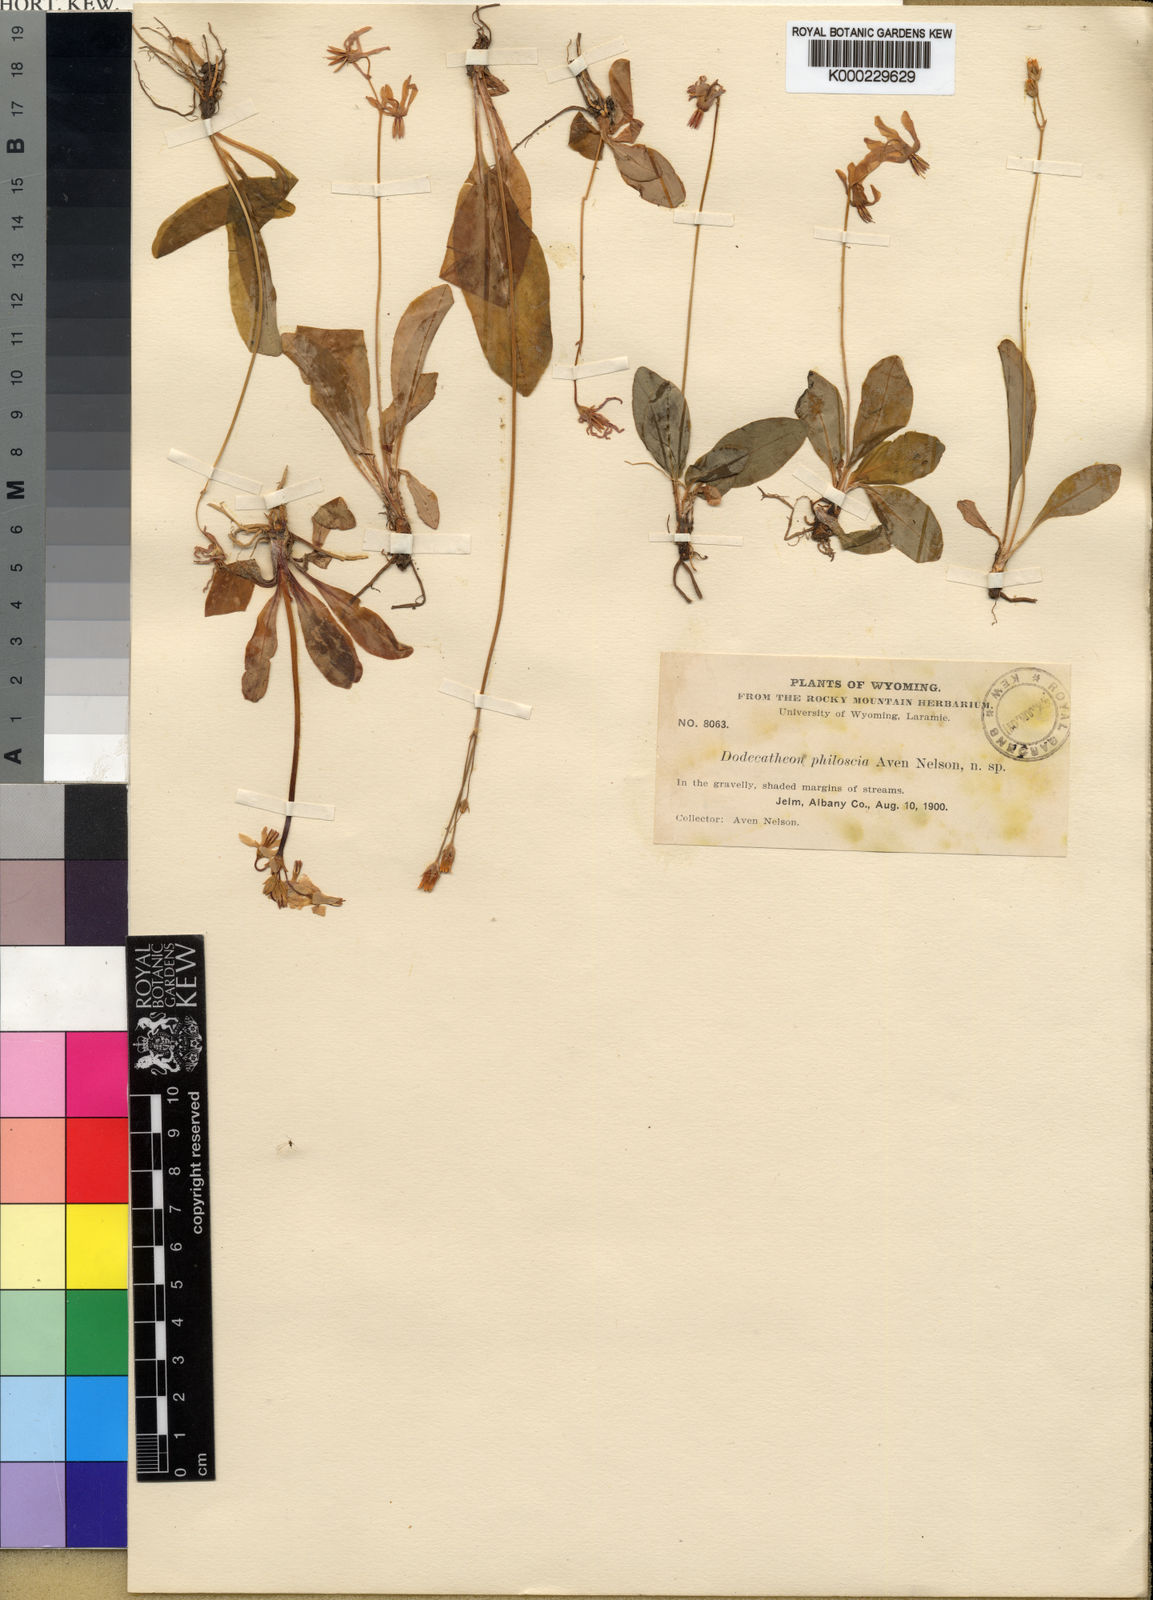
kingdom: Plantae
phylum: Tracheophyta
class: Magnoliopsida
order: Ericales
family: Primulaceae
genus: Dodecatheon
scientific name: Dodecatheon pulchellum
